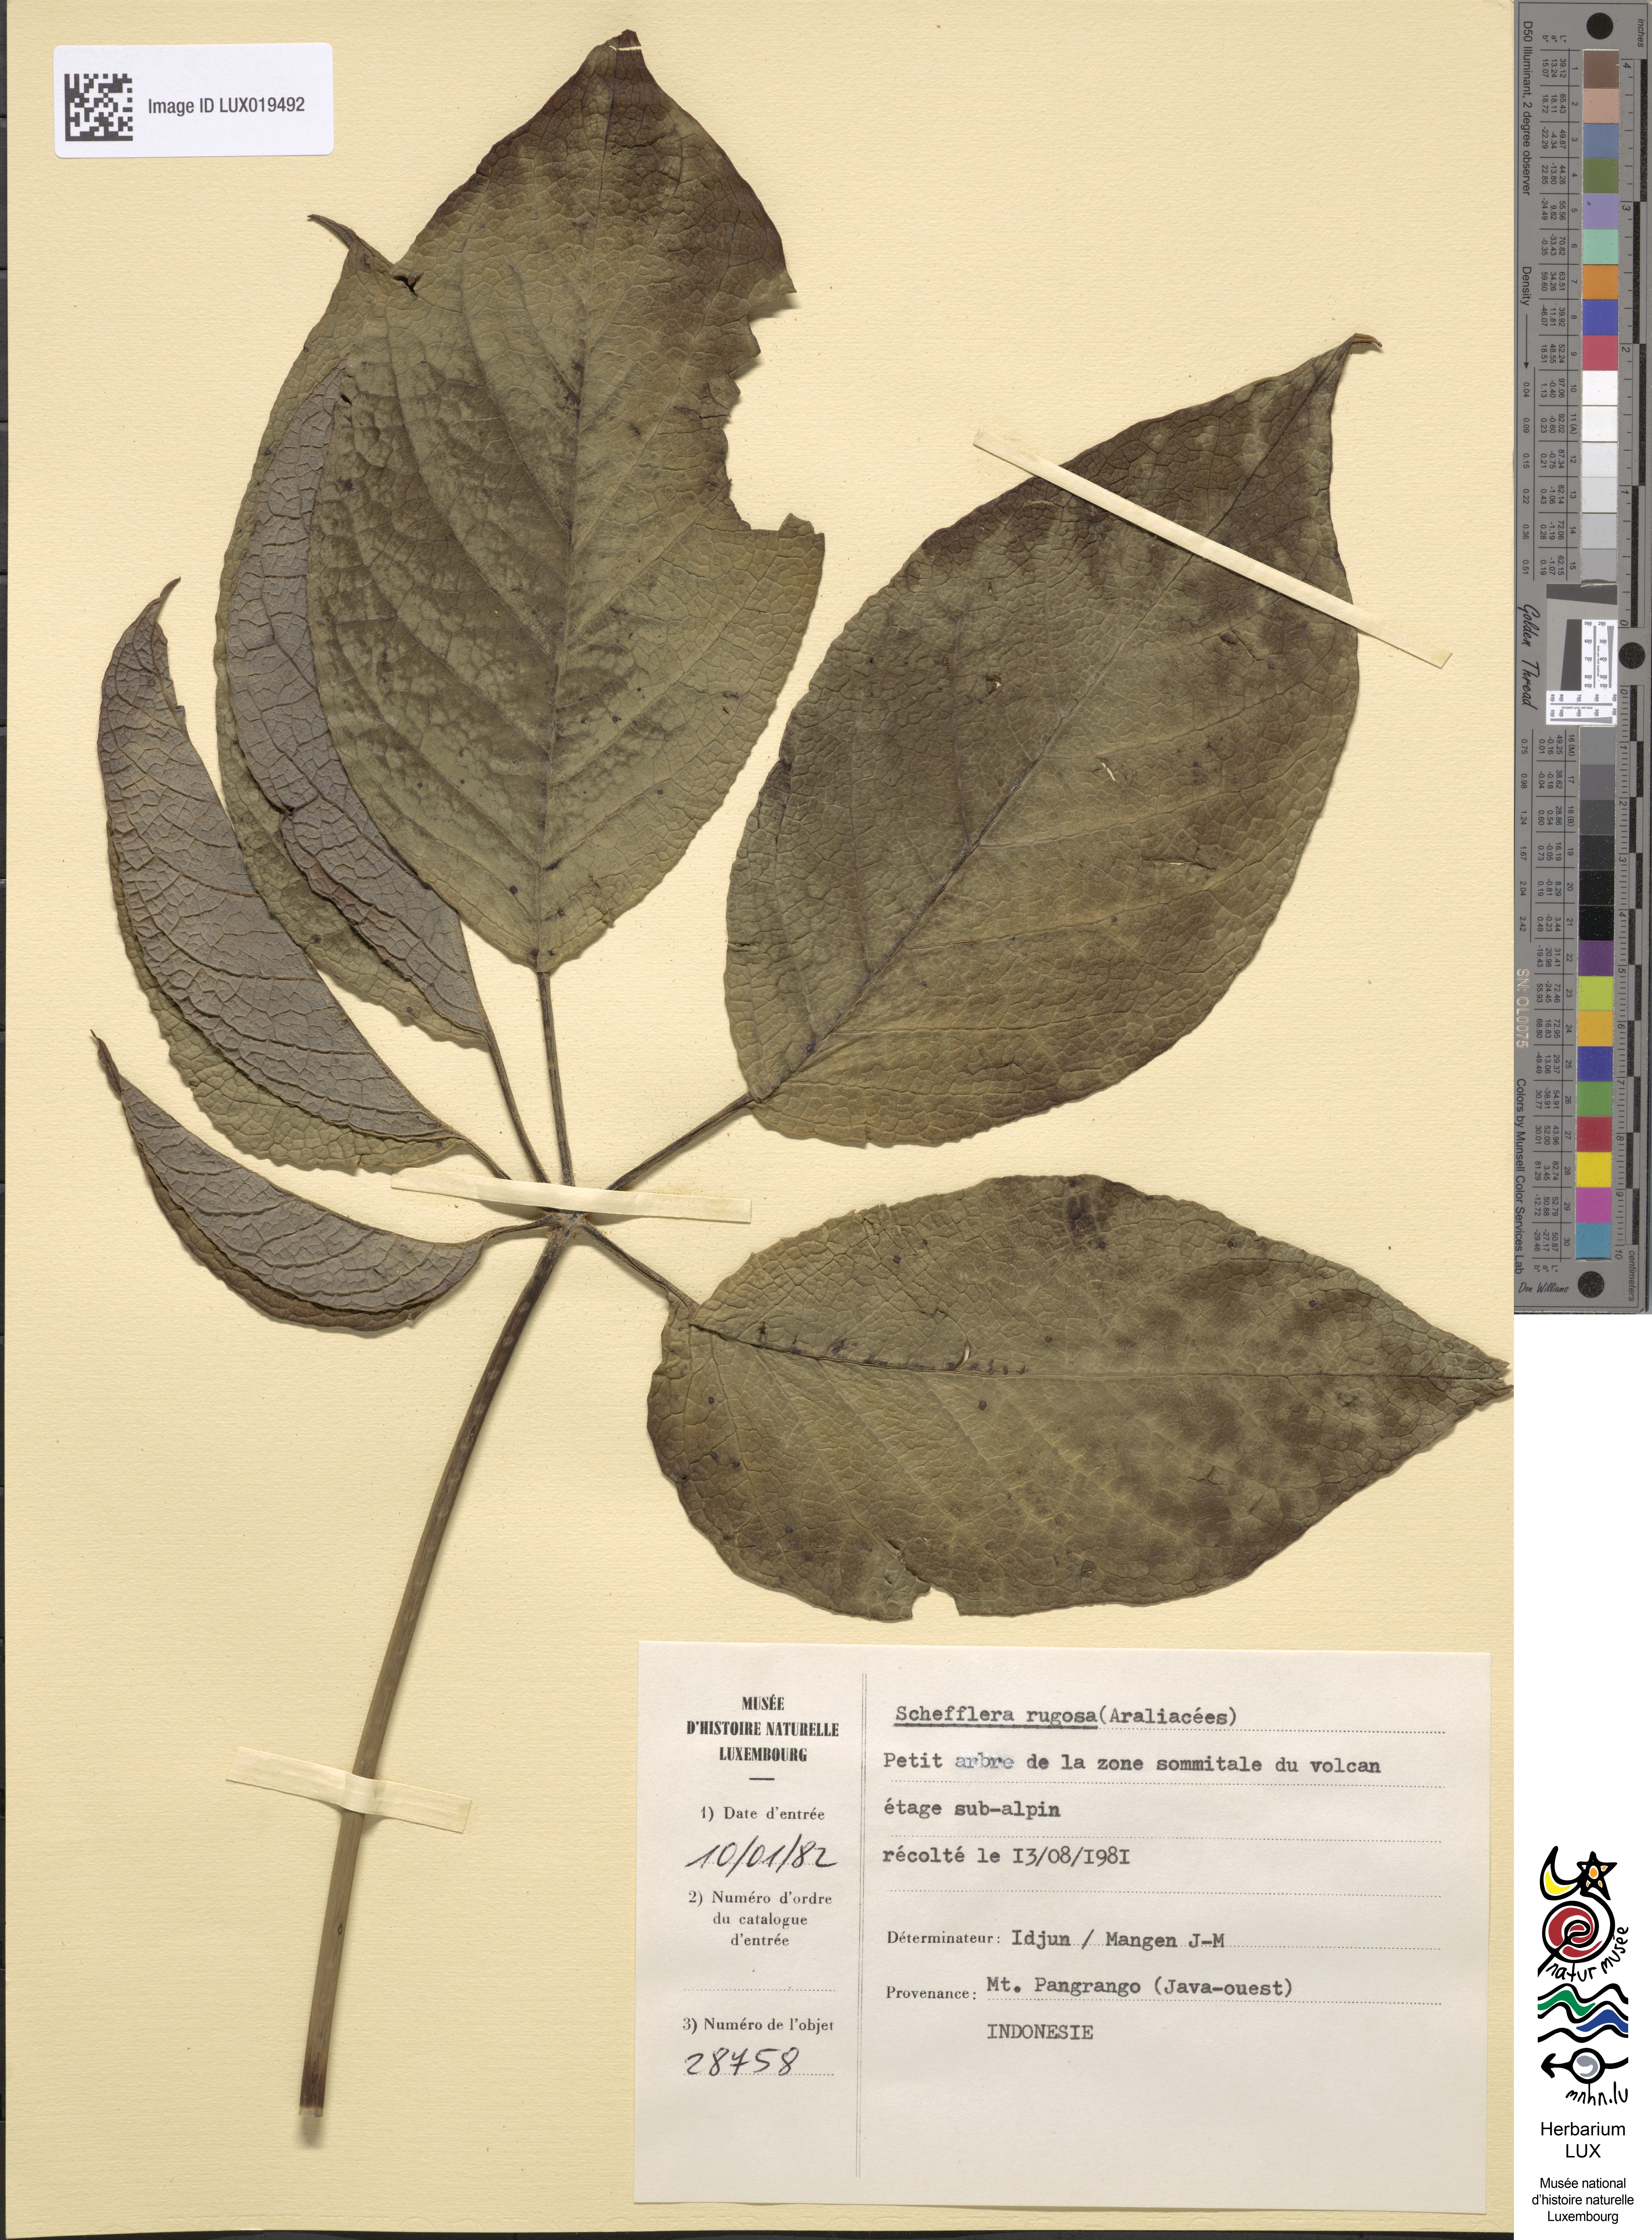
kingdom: Plantae
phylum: Tracheophyta
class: Magnoliopsida
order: Apiales
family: Araliaceae
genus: Heptapleurum
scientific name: Heptapleurum rugosum
